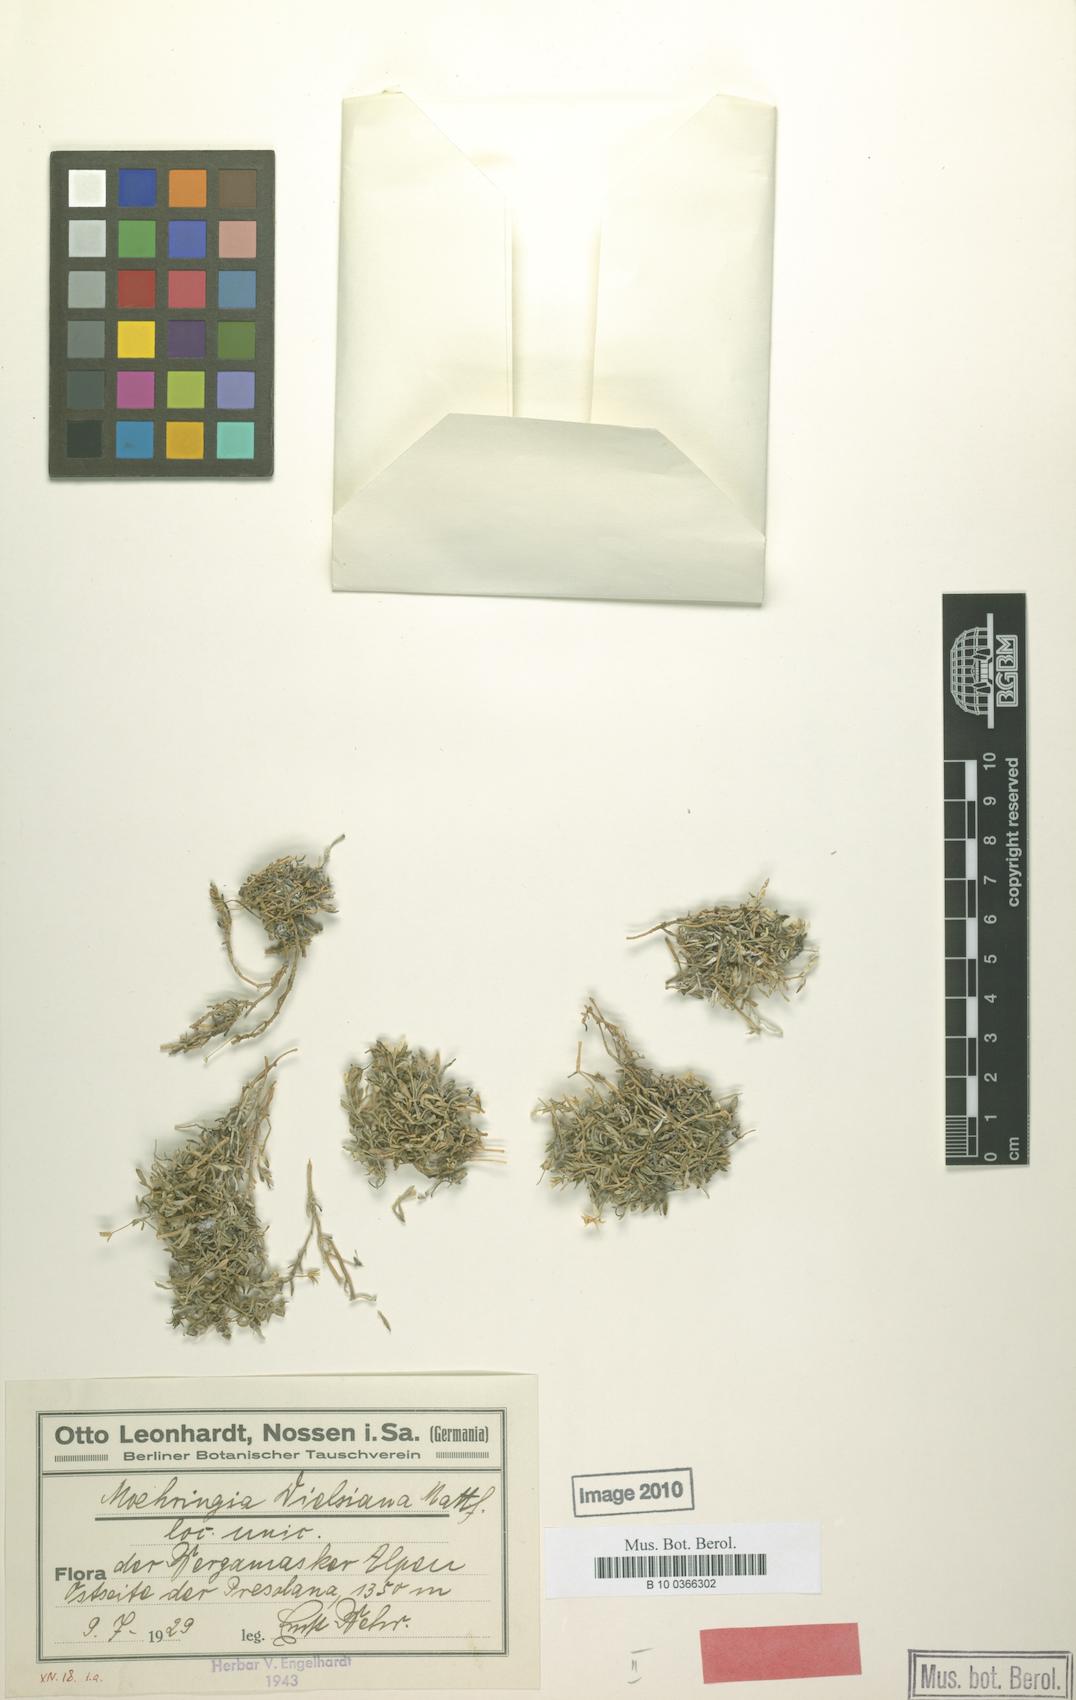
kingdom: Plantae
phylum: Tracheophyta
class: Magnoliopsida
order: Caryophyllales
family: Caryophyllaceae
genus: Moehringia
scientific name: Moehringia dielsiana
